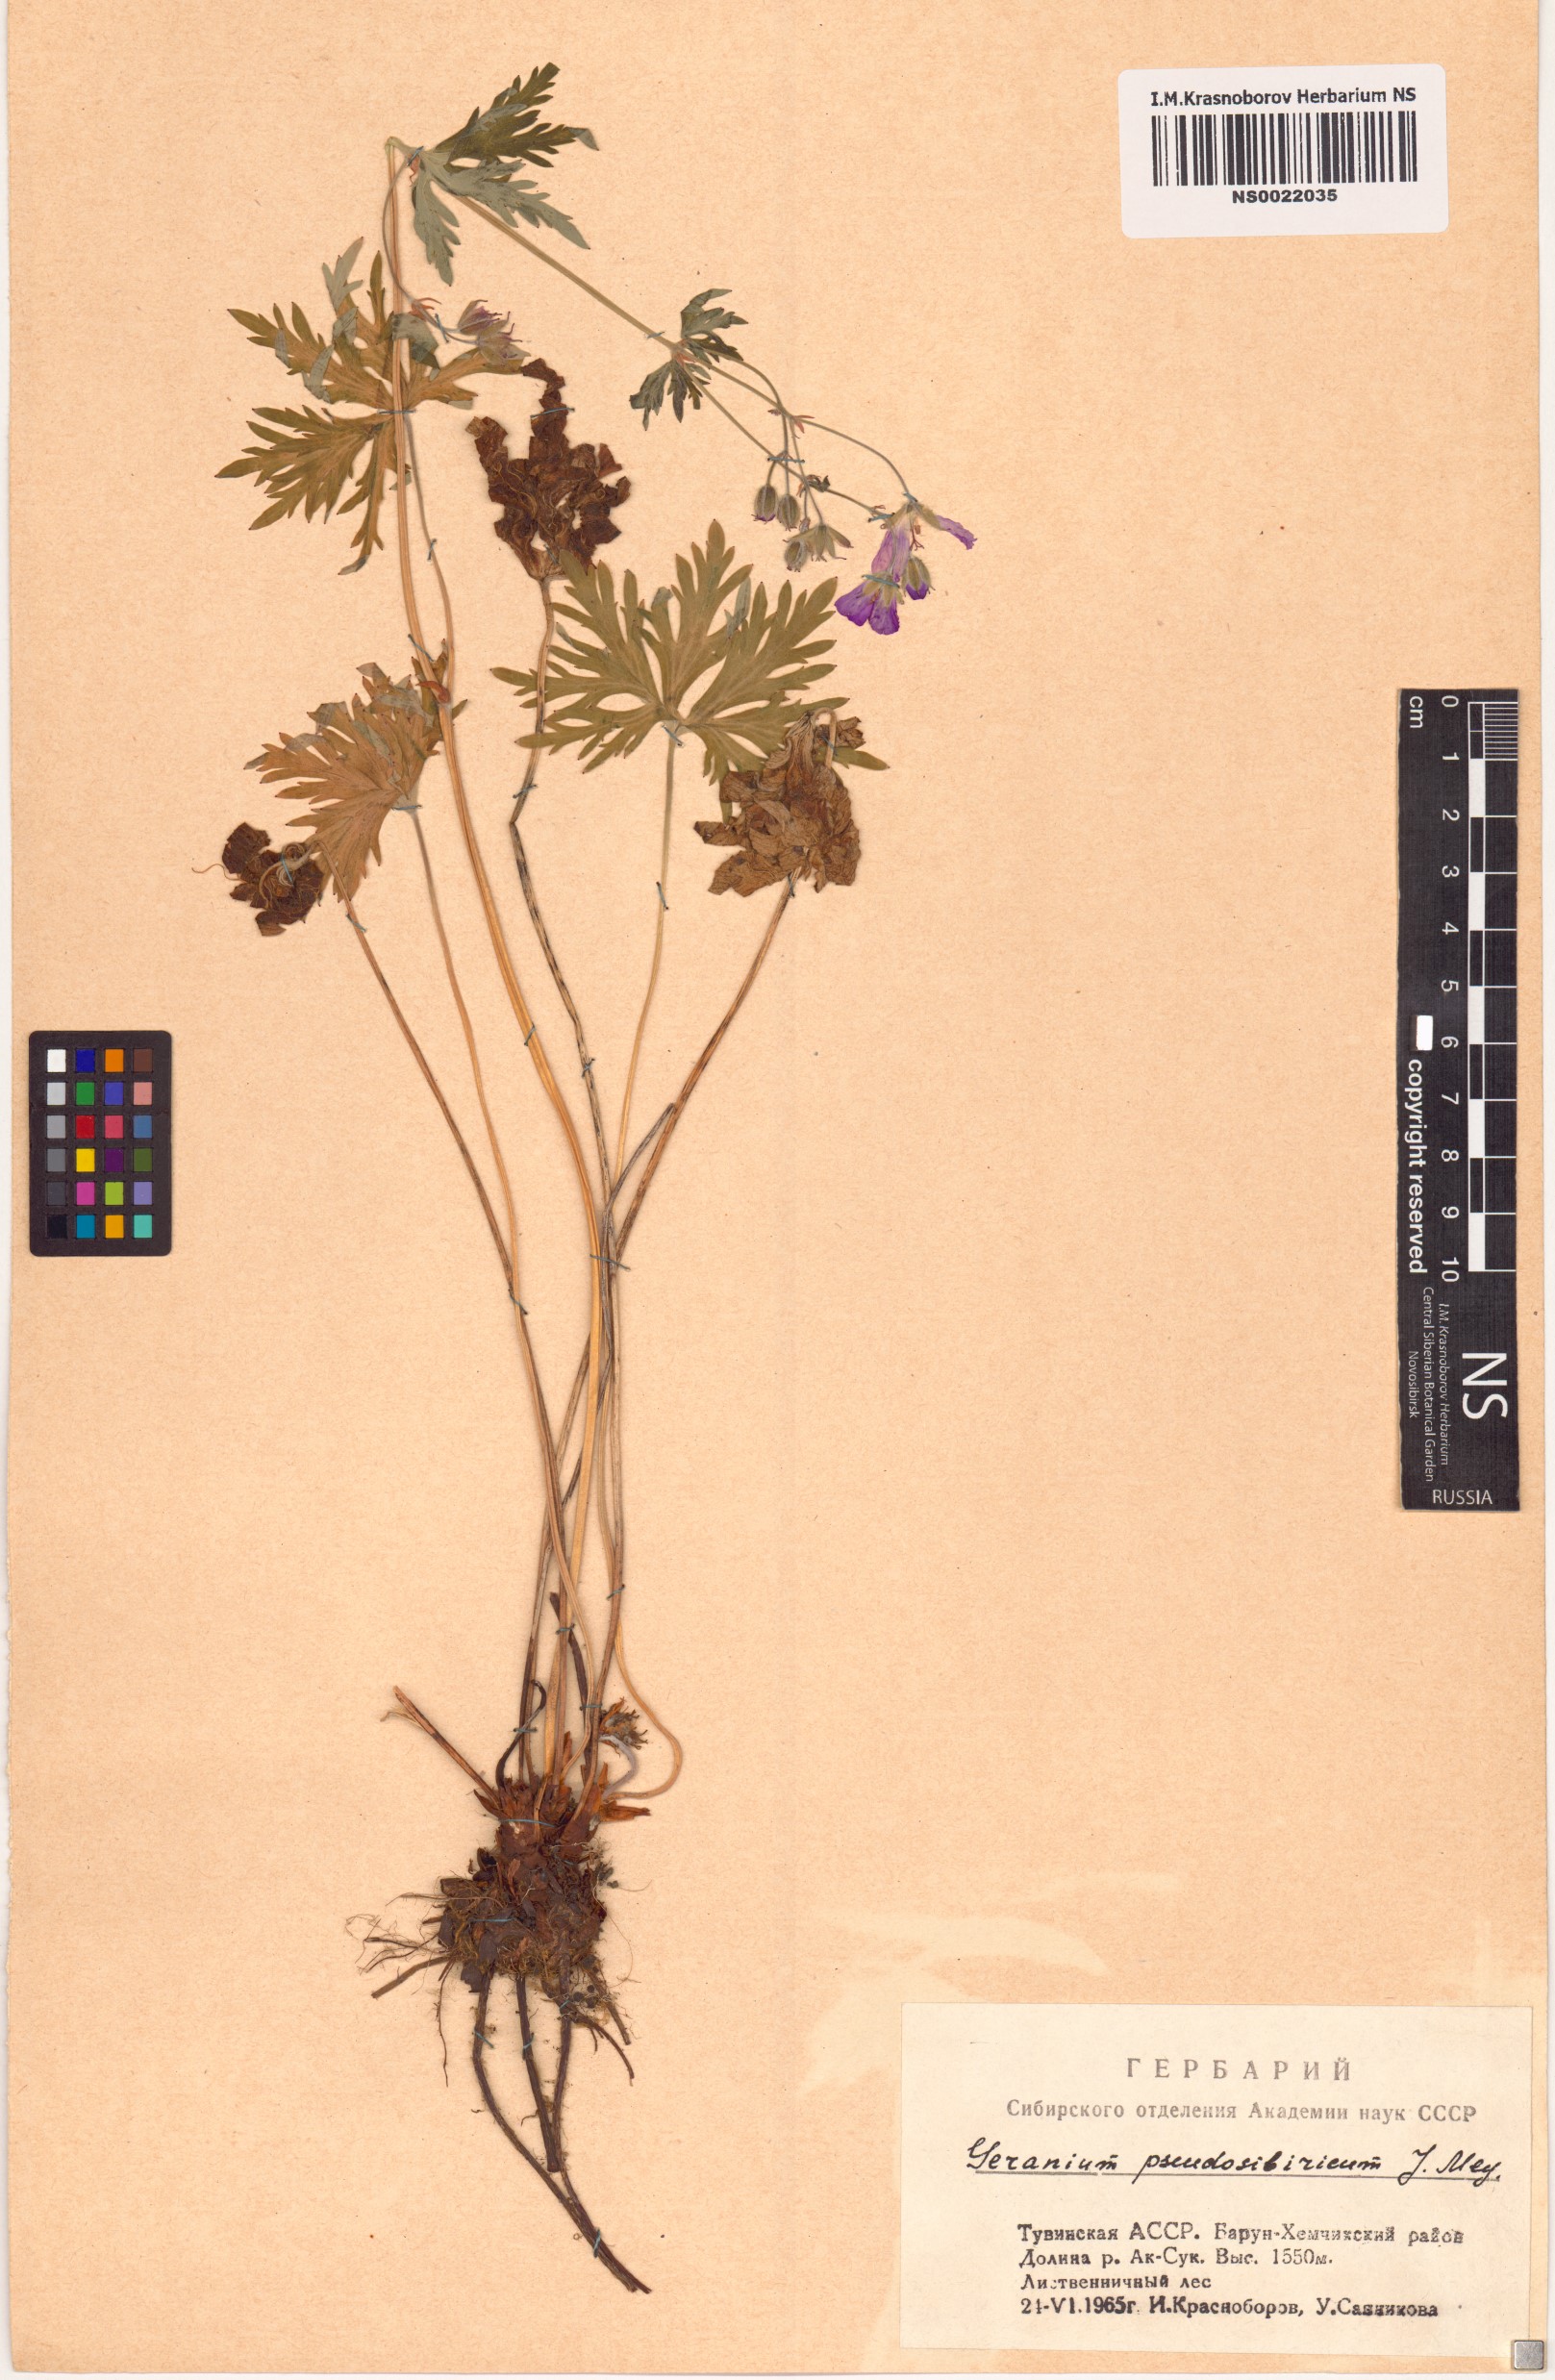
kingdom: Plantae
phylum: Tracheophyta
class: Magnoliopsida
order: Geraniales
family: Geraniaceae
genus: Geranium
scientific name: Geranium pseudosibiricum
